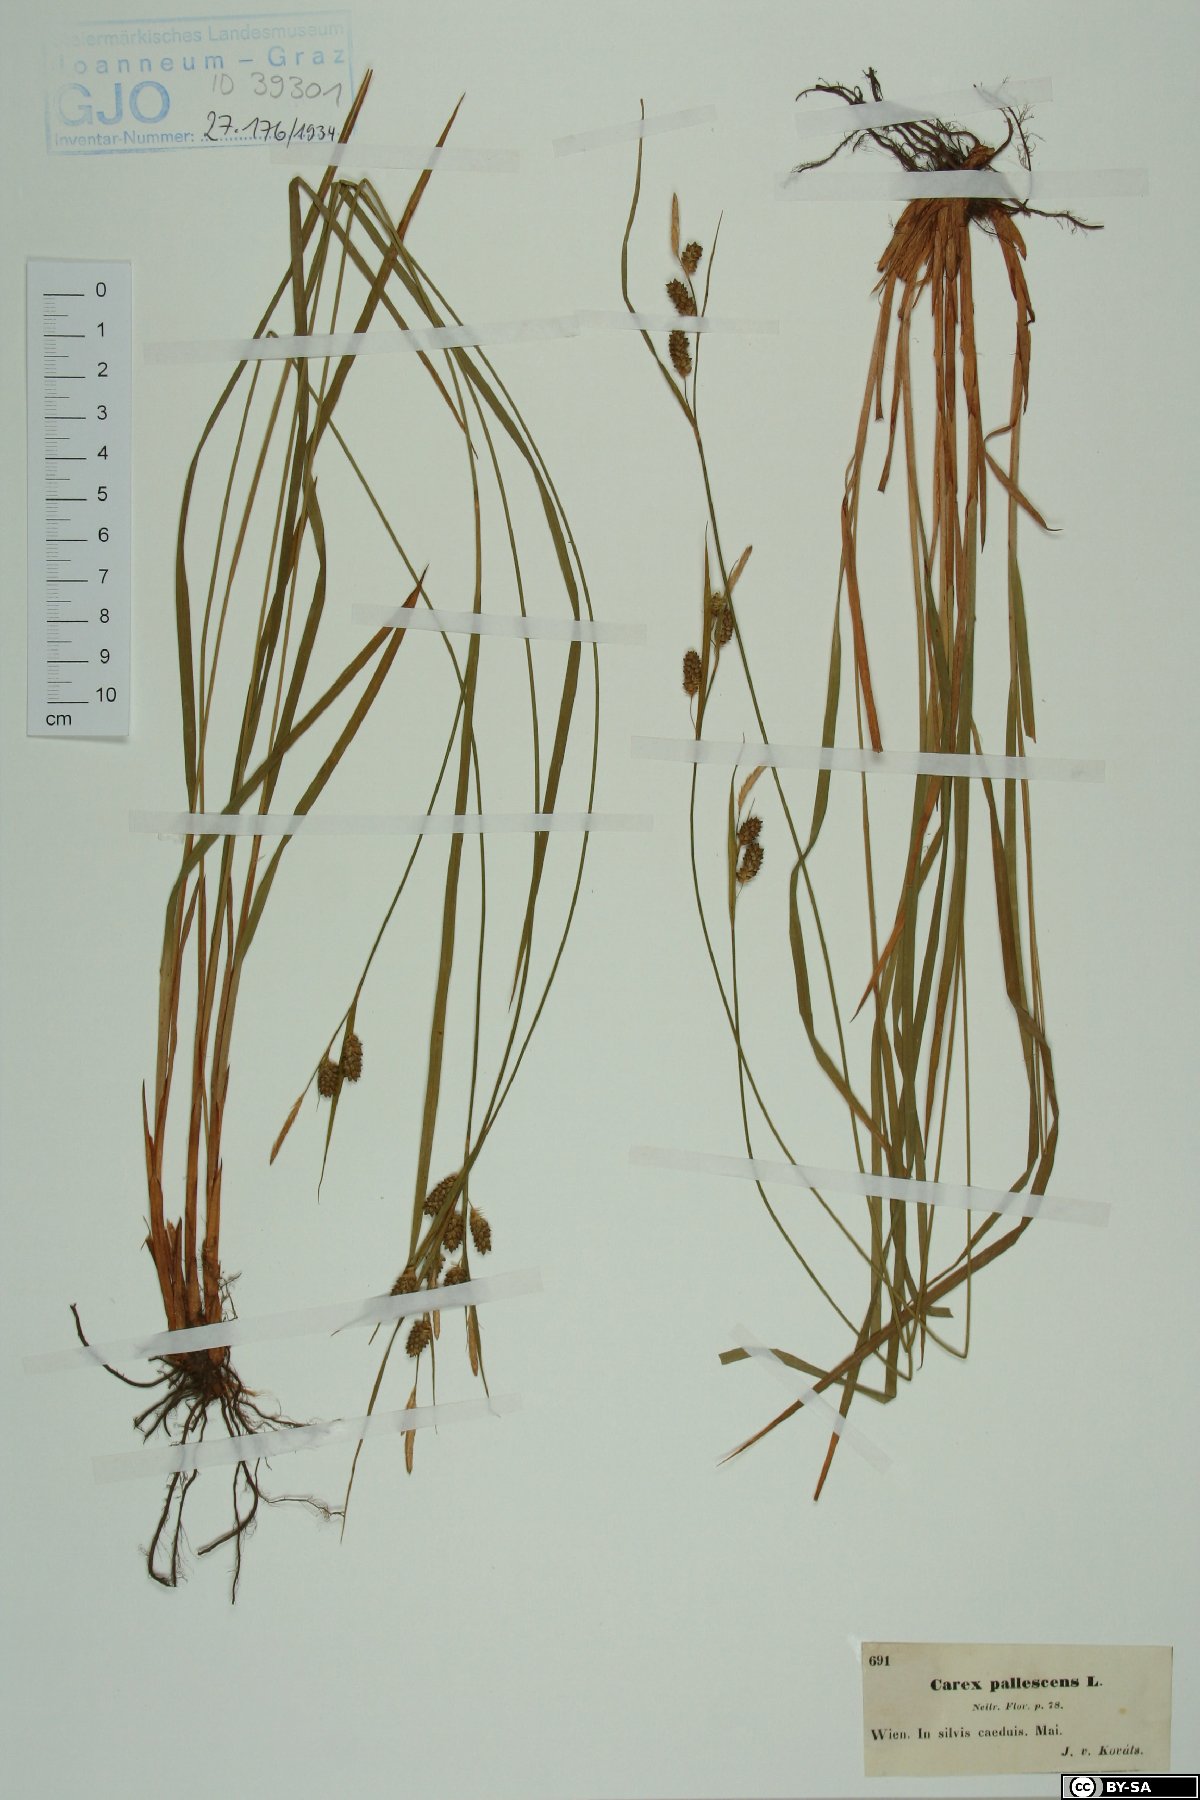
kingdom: Plantae
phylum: Tracheophyta
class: Liliopsida
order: Poales
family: Cyperaceae
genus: Carex
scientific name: Carex pallescens
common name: Pale sedge
